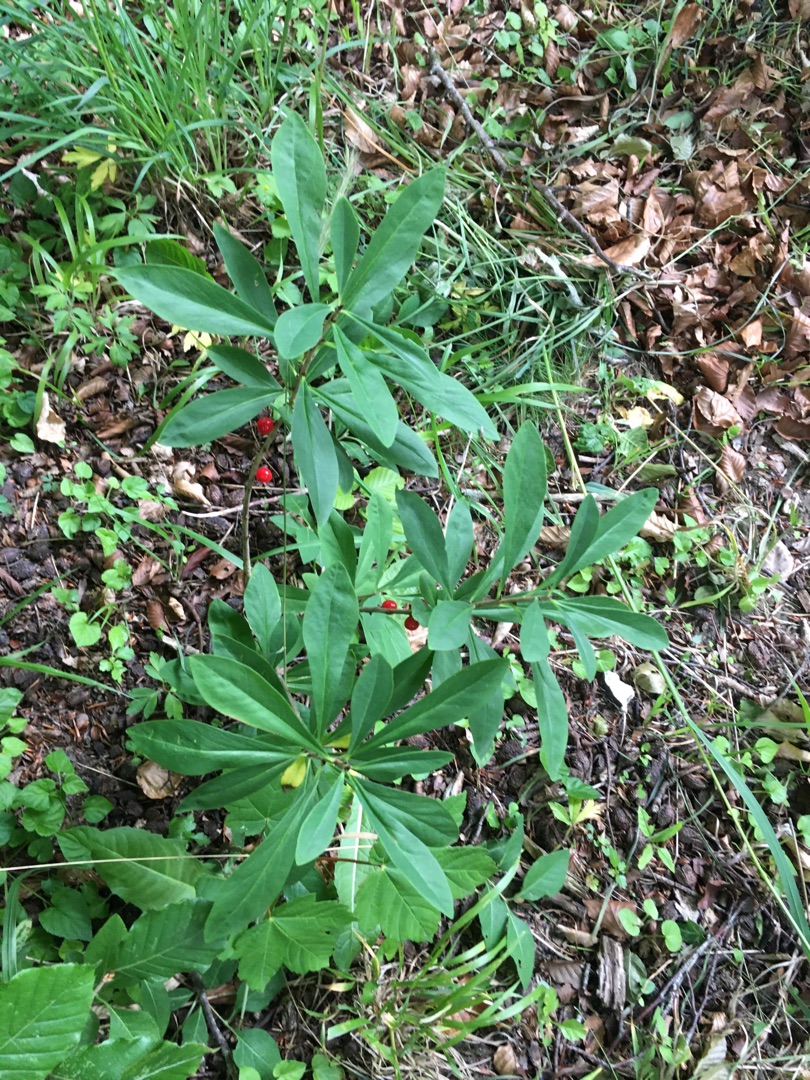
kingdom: Plantae
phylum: Tracheophyta
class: Magnoliopsida
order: Malvales
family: Thymelaeaceae
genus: Daphne
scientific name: Daphne mezereum
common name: Pebertræ
